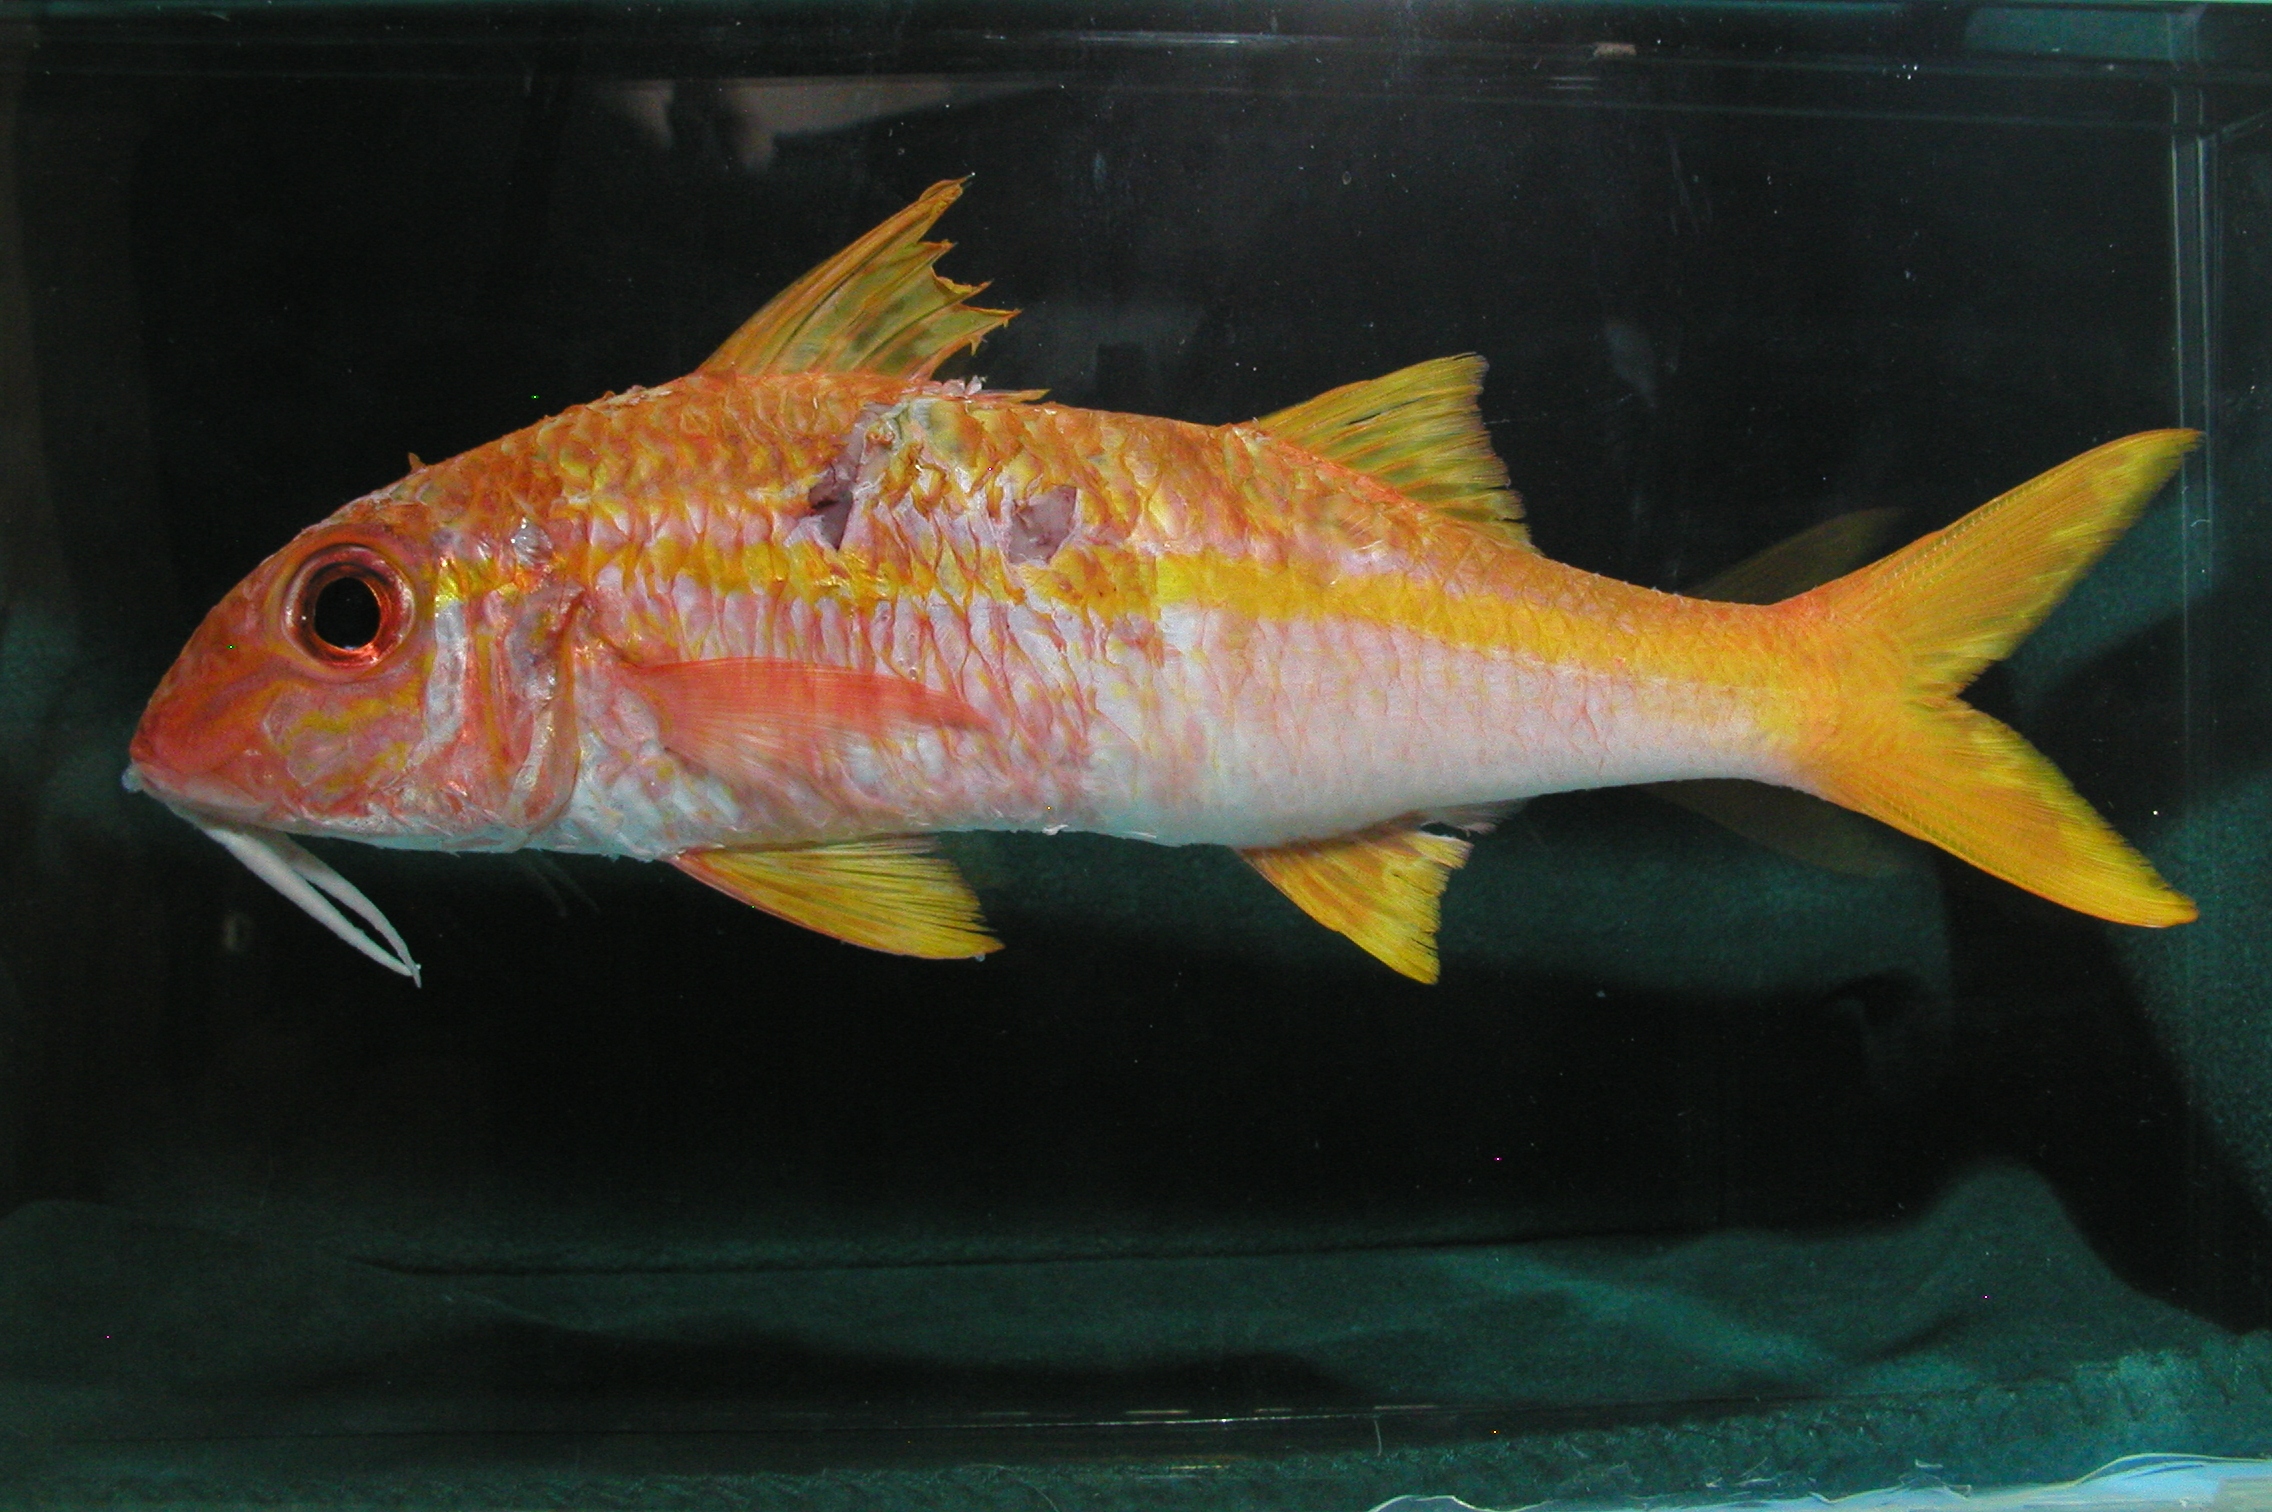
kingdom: Animalia
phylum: Chordata
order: Perciformes
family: Mullidae
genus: Mulloidichthys
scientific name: Mulloidichthys vanicolensis
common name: Yellowfin goatfish
